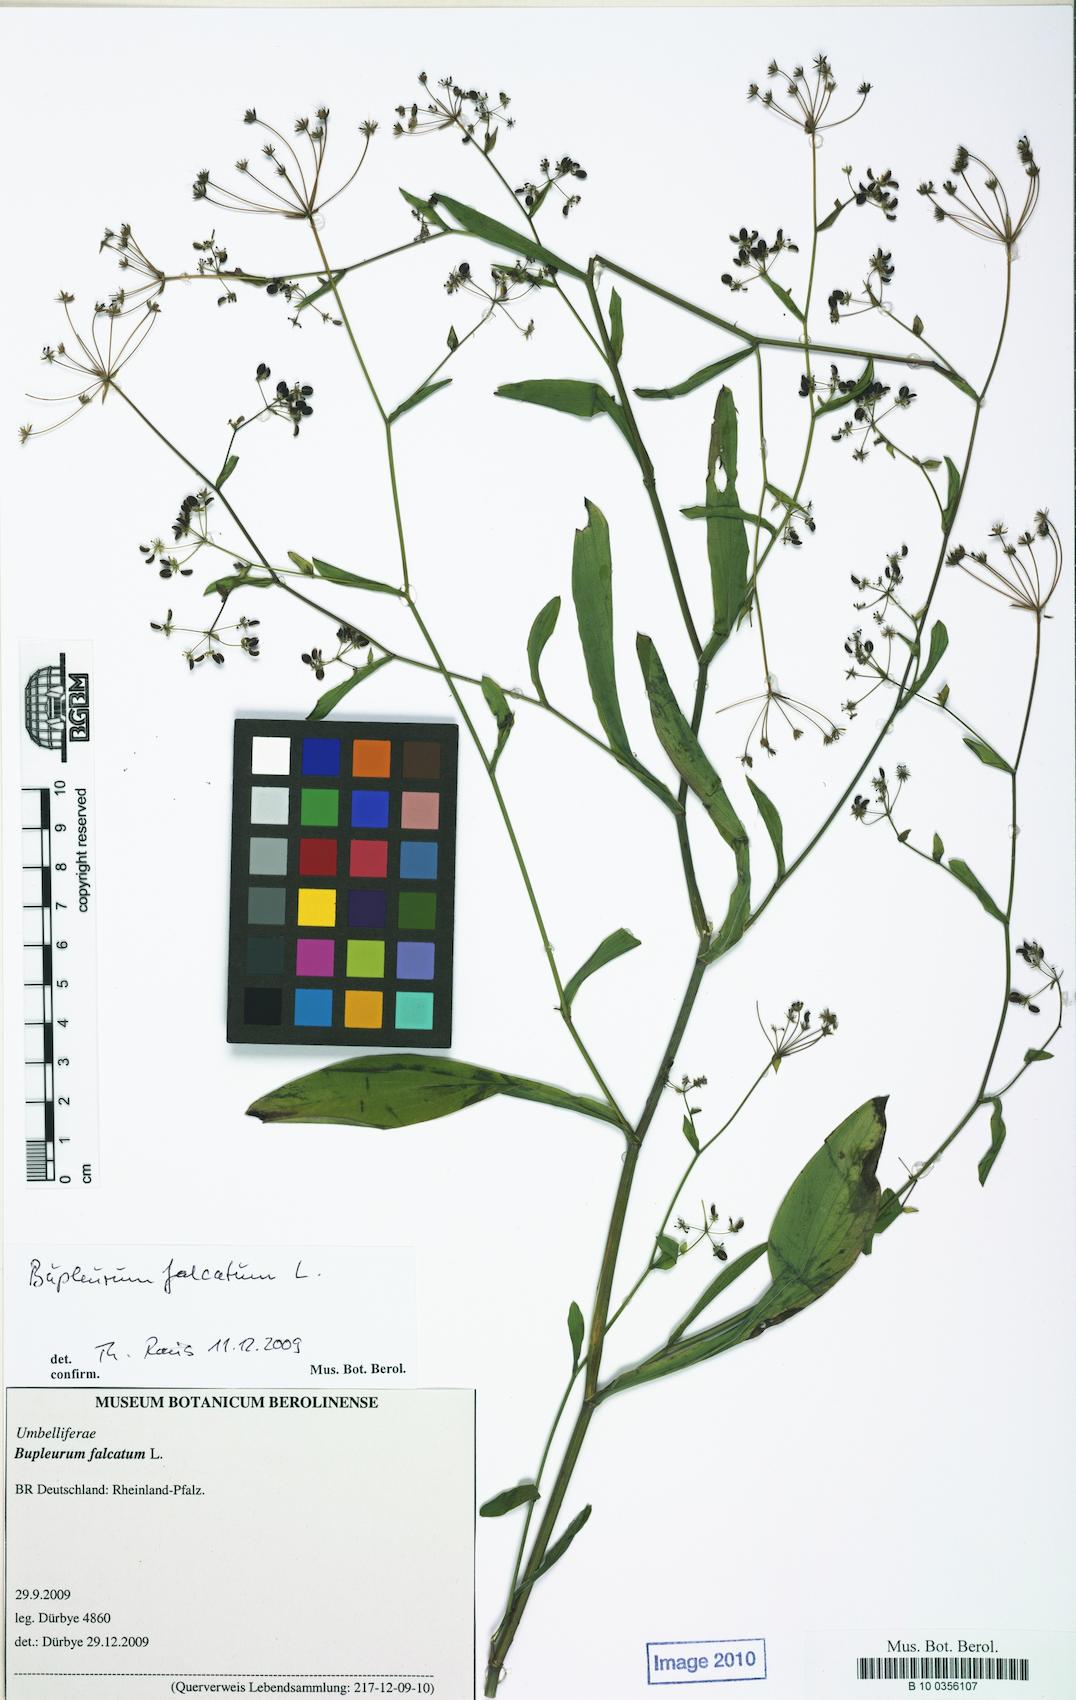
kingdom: Plantae
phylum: Tracheophyta
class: Magnoliopsida
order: Apiales
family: Apiaceae
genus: Bupleurum
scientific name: Bupleurum falcatum
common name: Sickle-leaved hare's-ear
